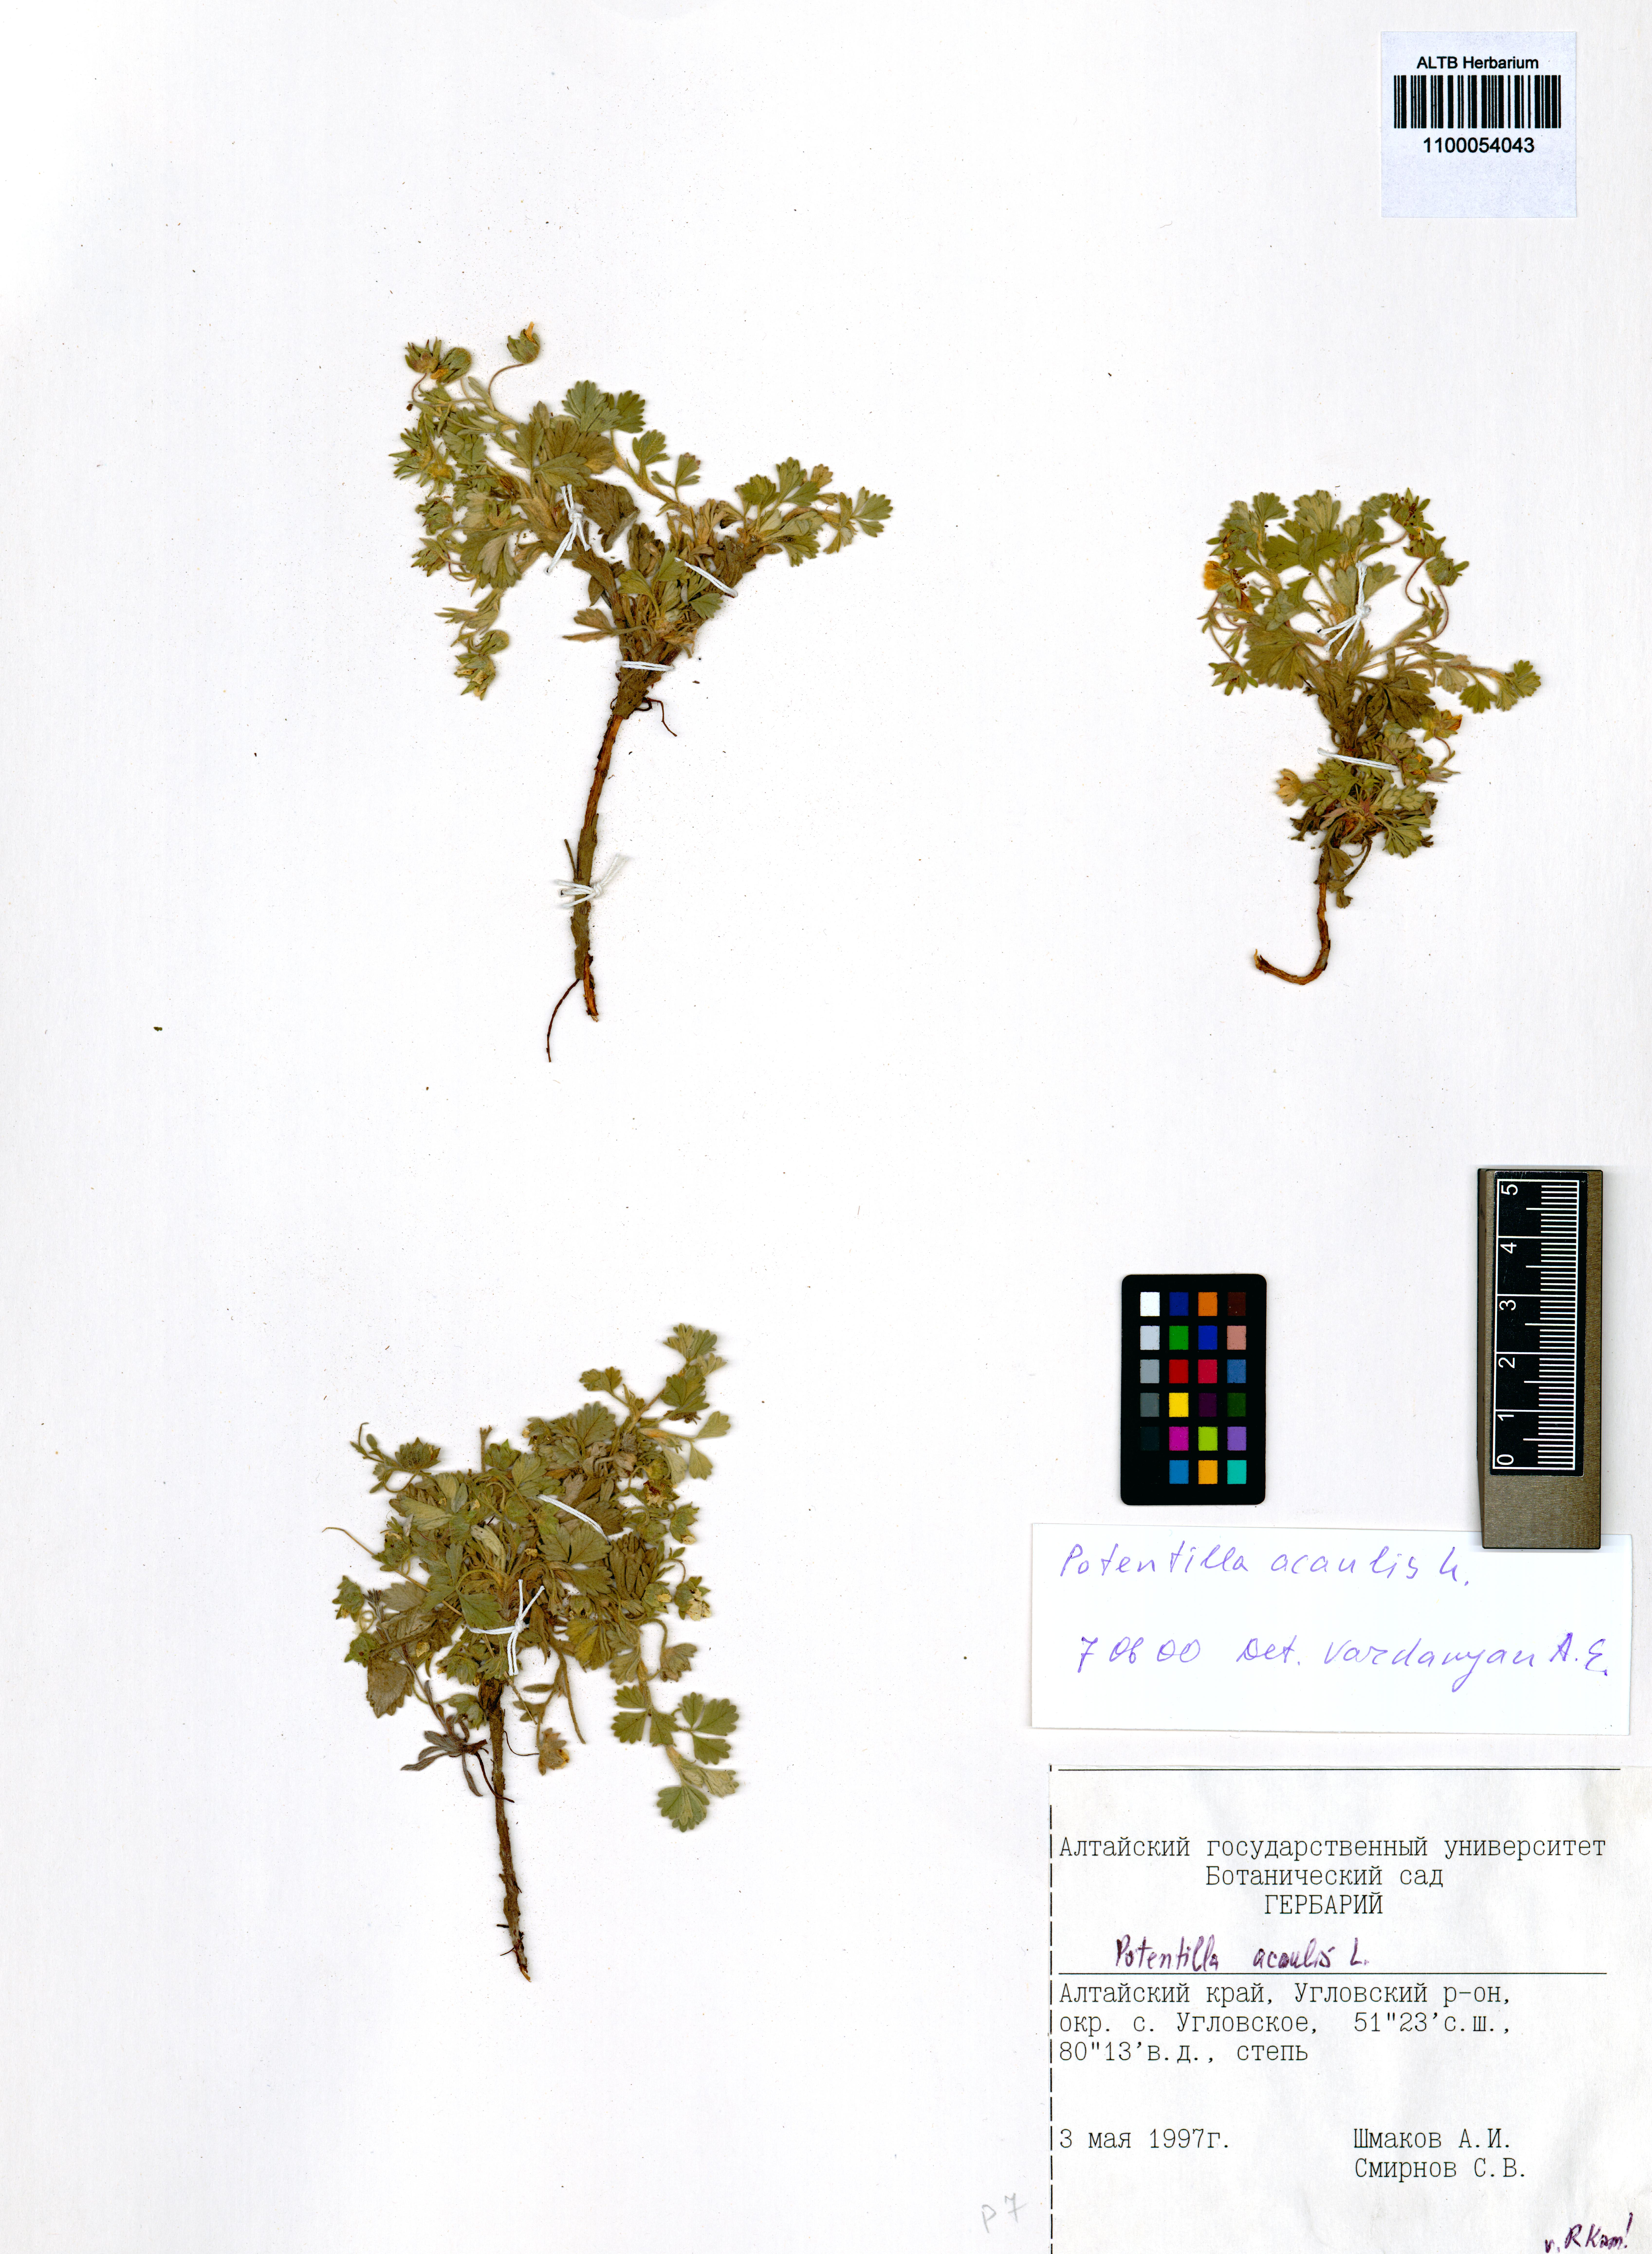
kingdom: Plantae
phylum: Tracheophyta
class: Magnoliopsida
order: Rosales
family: Rosaceae
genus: Potentilla
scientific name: Potentilla acaulis
